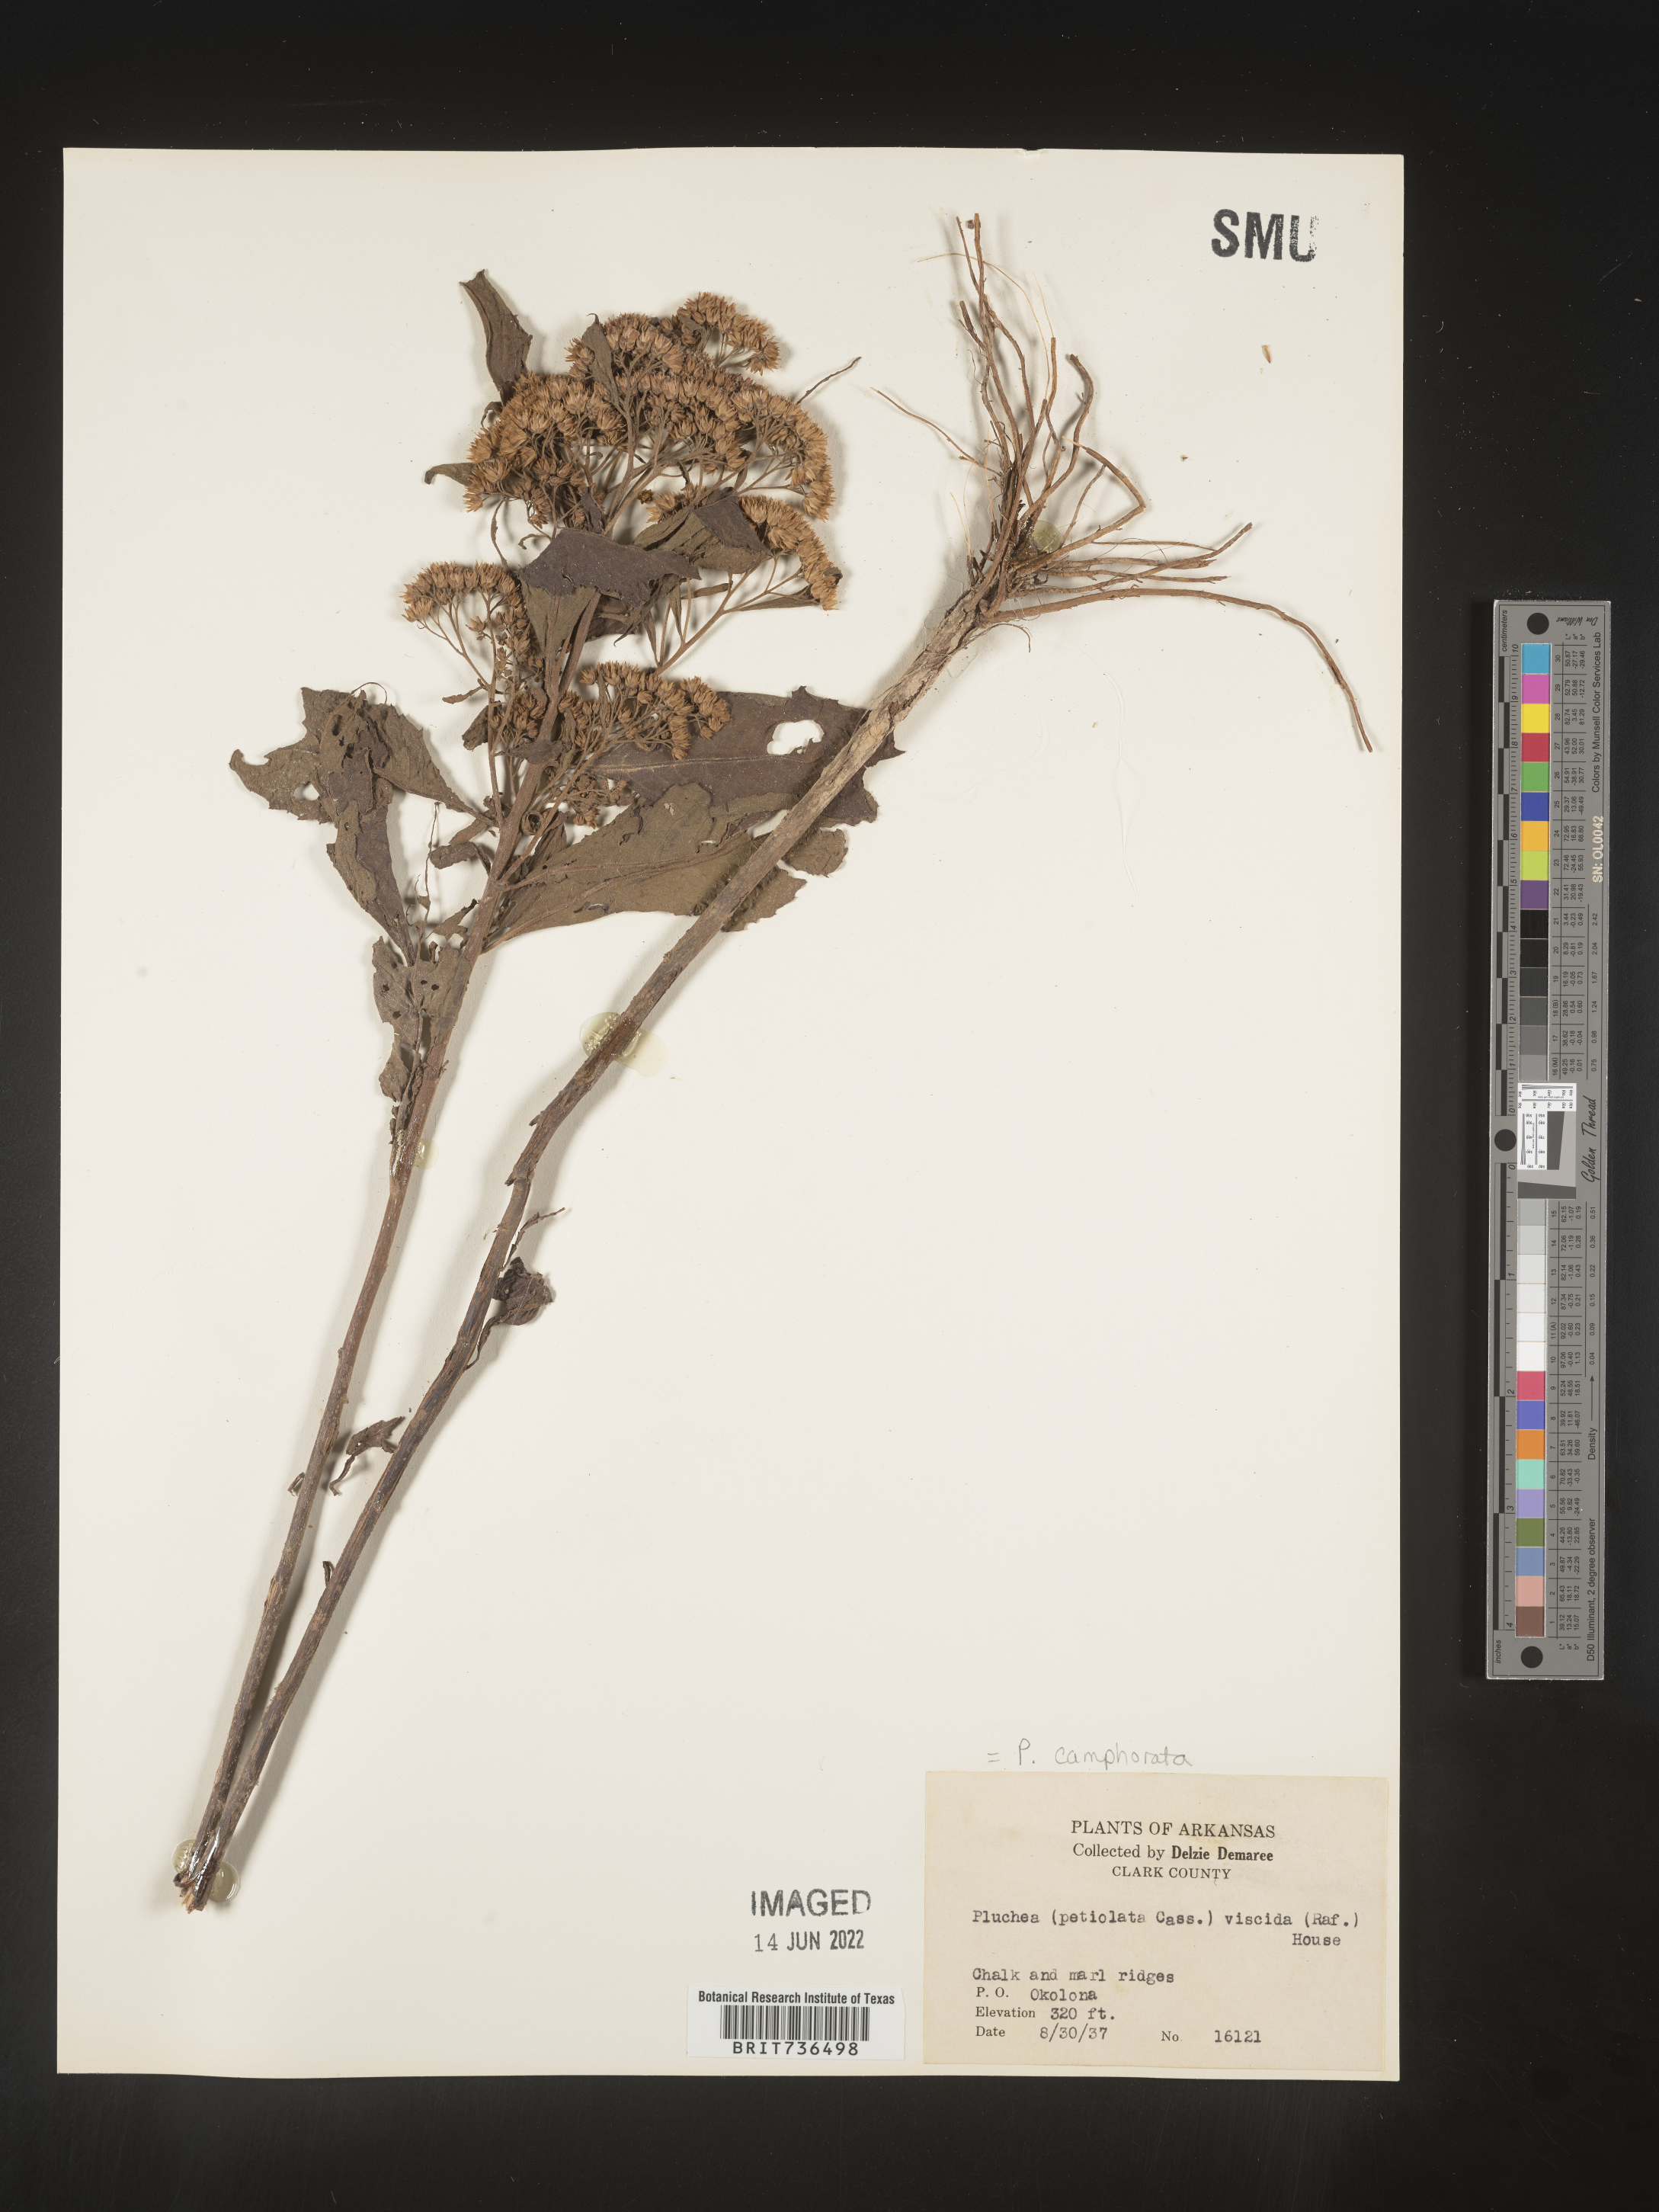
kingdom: Plantae
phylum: Tracheophyta
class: Magnoliopsida
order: Asterales
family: Asteraceae
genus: Pluchea
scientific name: Pluchea camphorata
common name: Camphor pluchea
